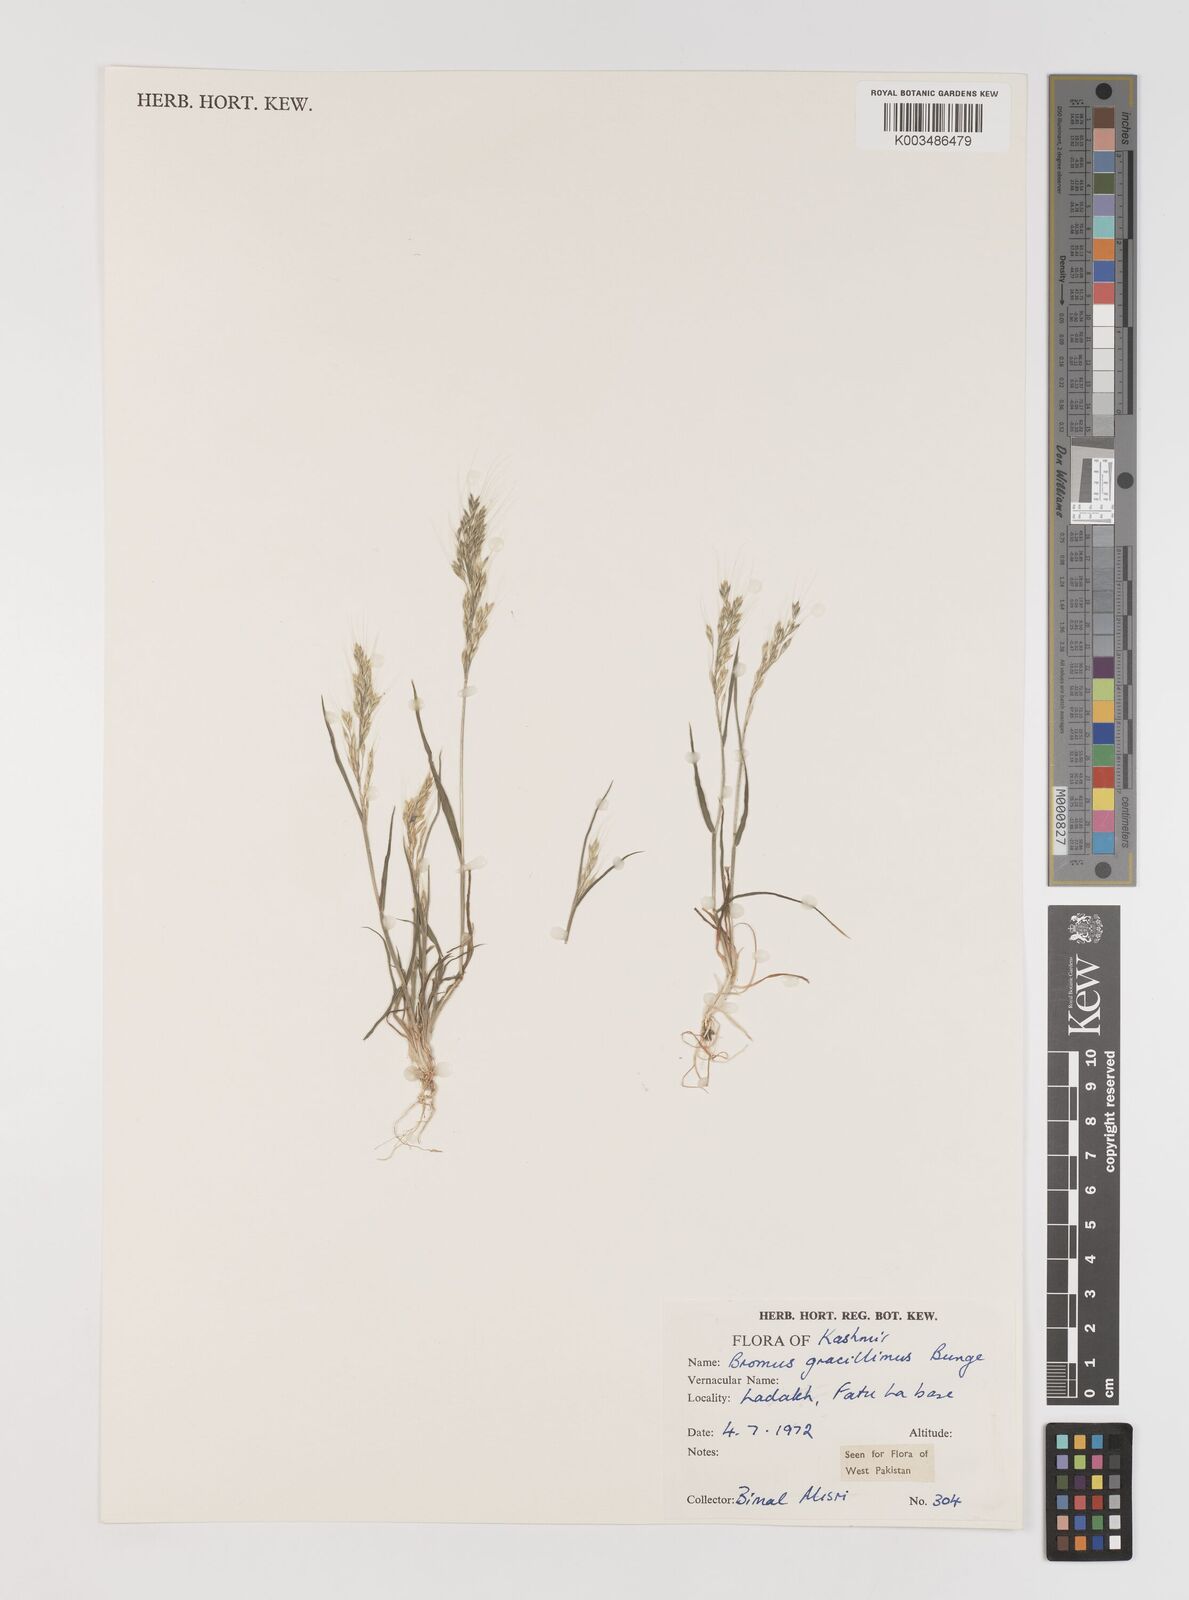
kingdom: Plantae
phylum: Tracheophyta
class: Liliopsida
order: Poales
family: Poaceae
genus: Bromus
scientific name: Bromus gracillimus
